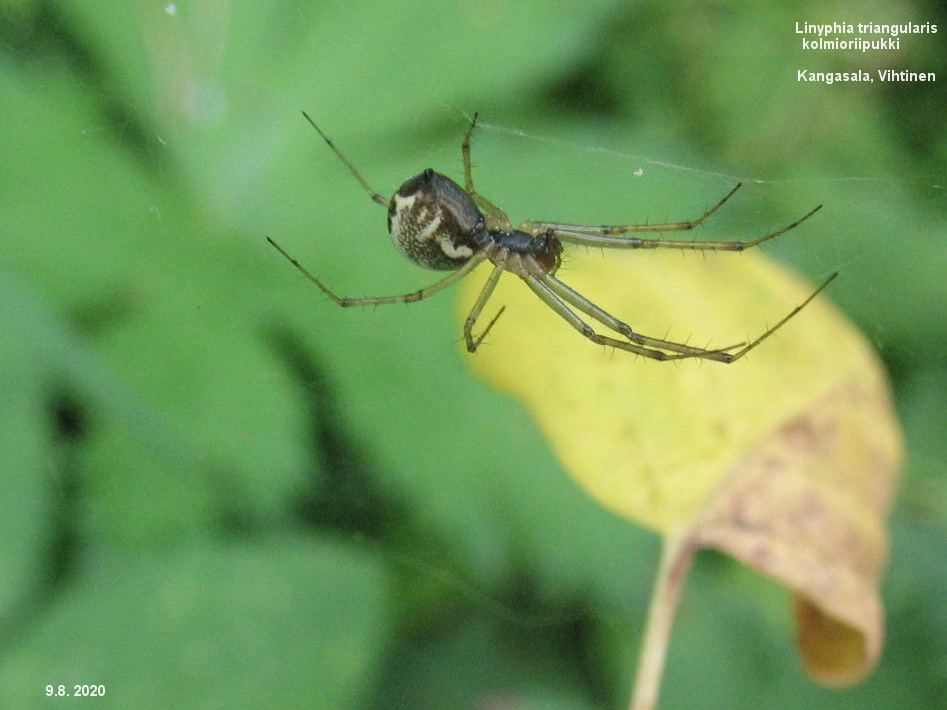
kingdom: Animalia
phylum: Arthropoda
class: Arachnida
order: Araneae
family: Linyphiidae
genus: Linyphia
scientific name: Linyphia triangularis
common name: Money spider
